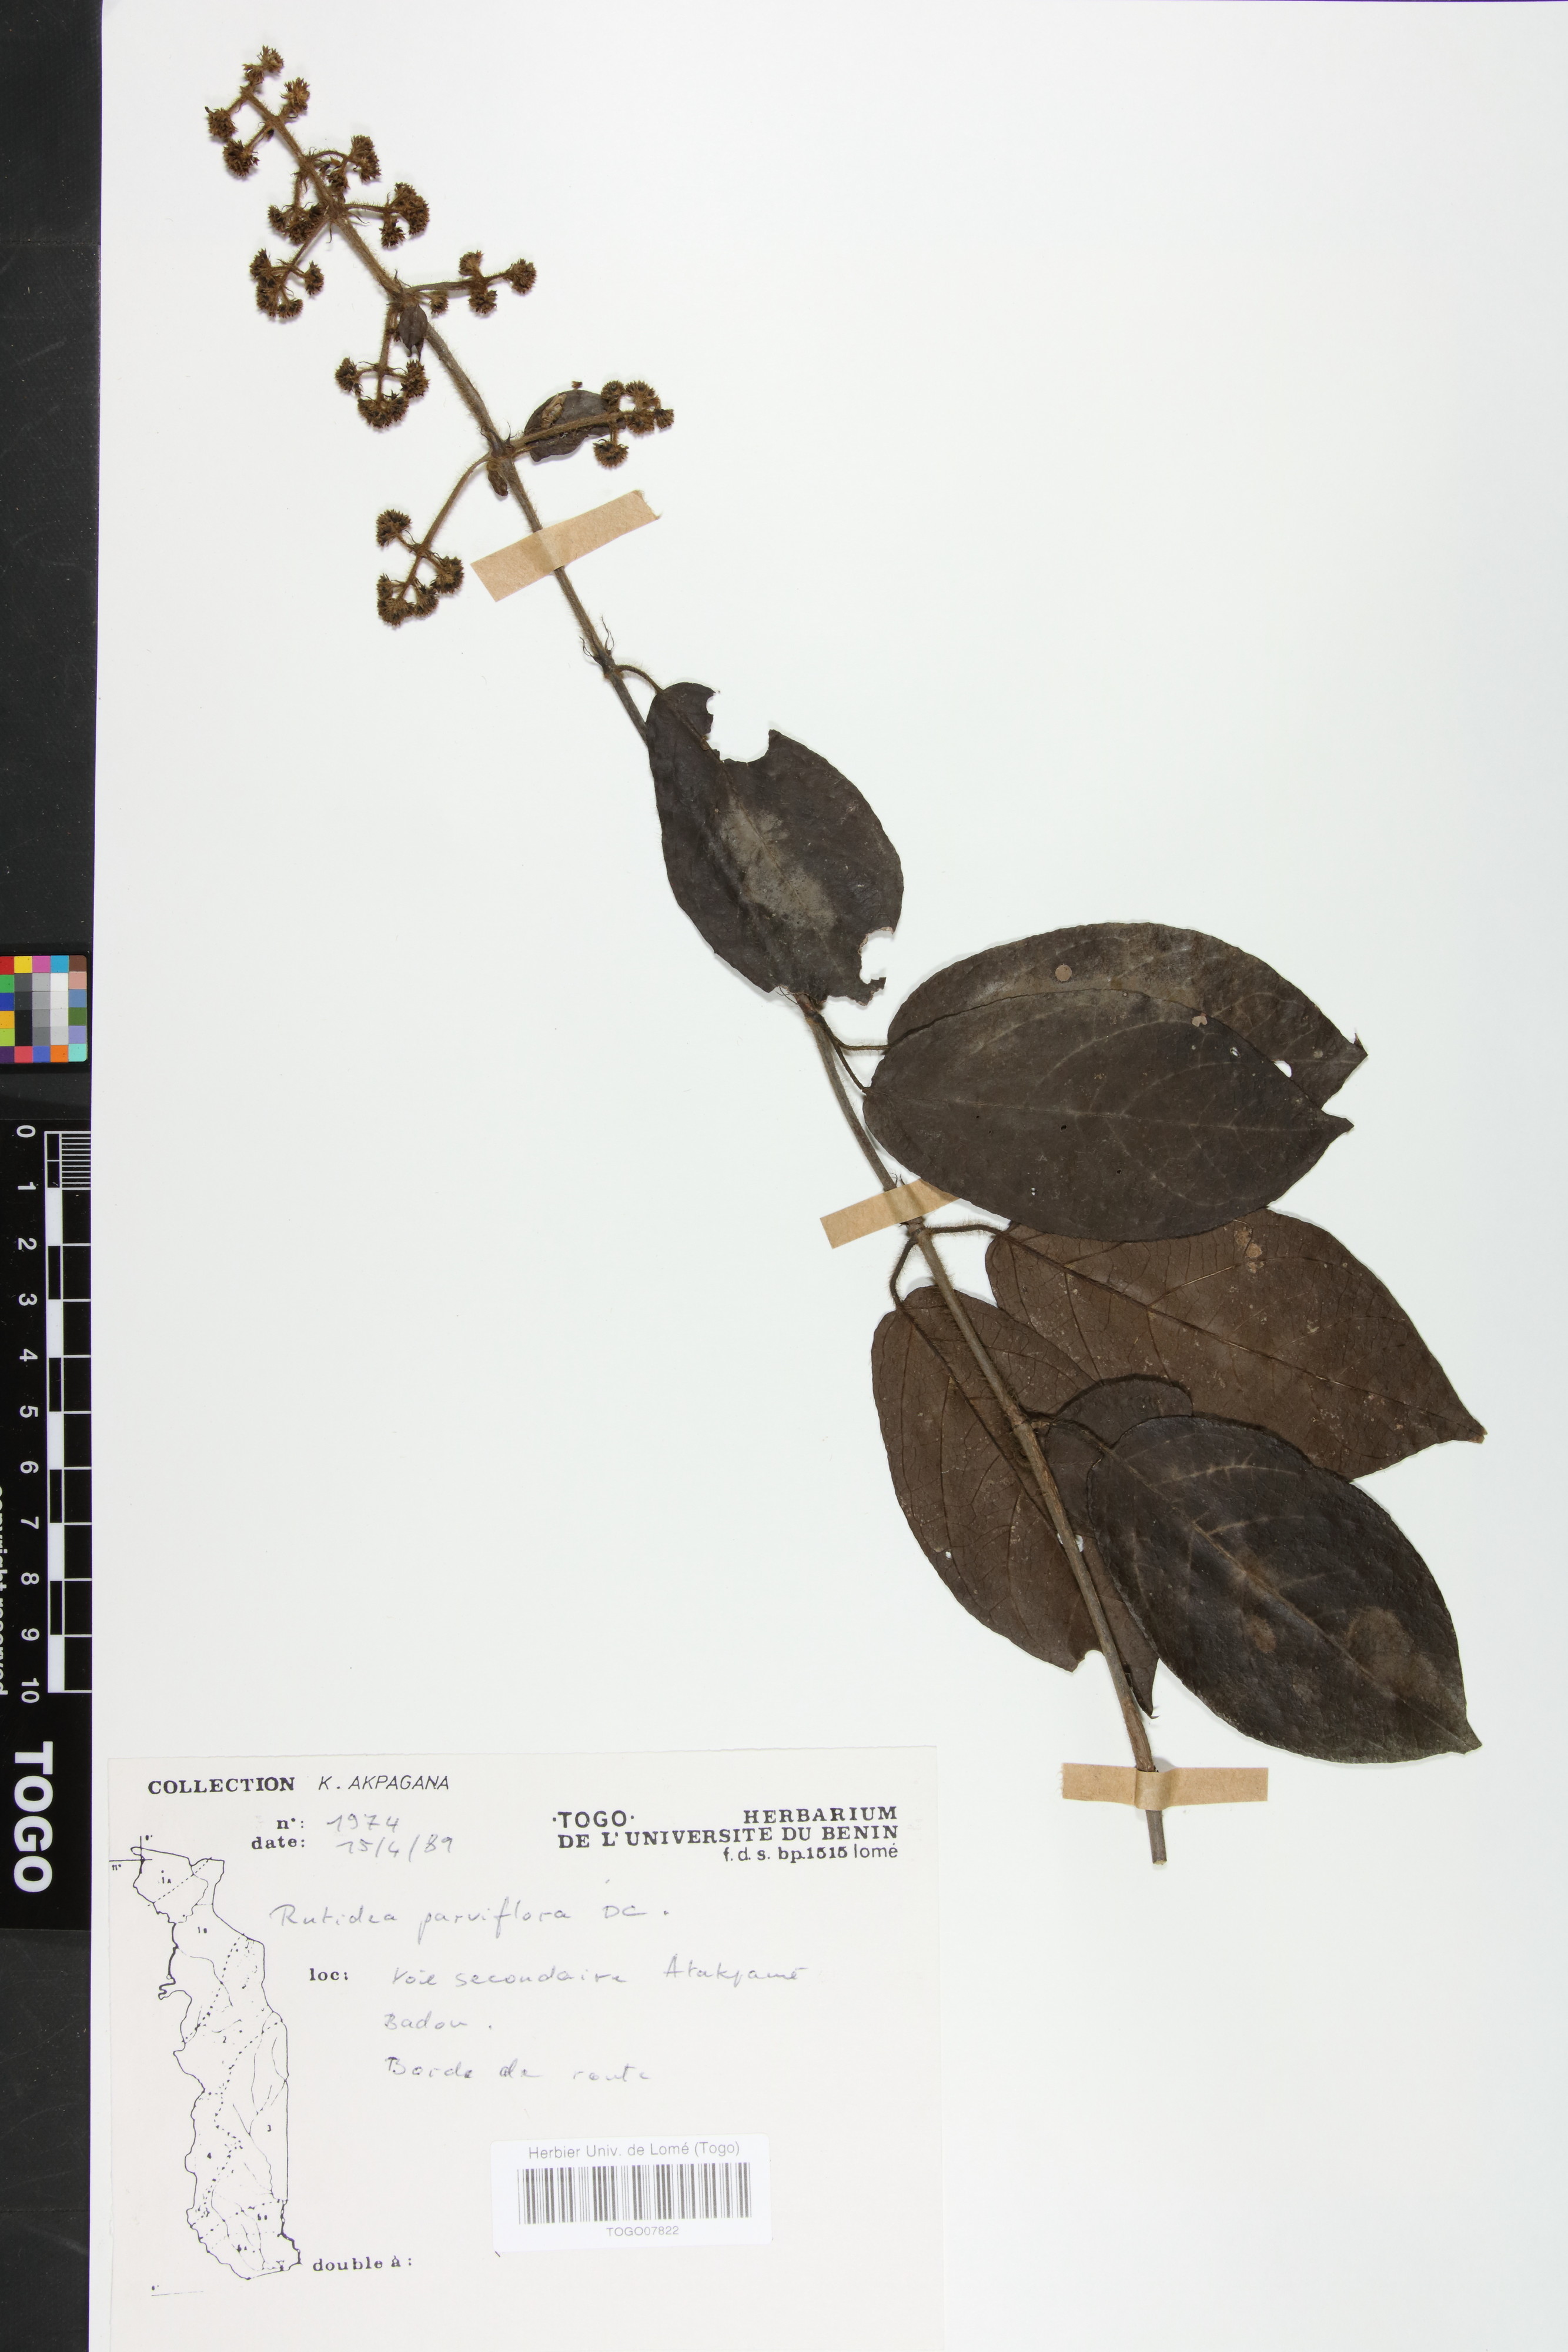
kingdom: Plantae
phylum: Tracheophyta
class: Magnoliopsida
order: Gentianales
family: Rubiaceae
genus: Rutidea
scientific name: Rutidea parviflora
